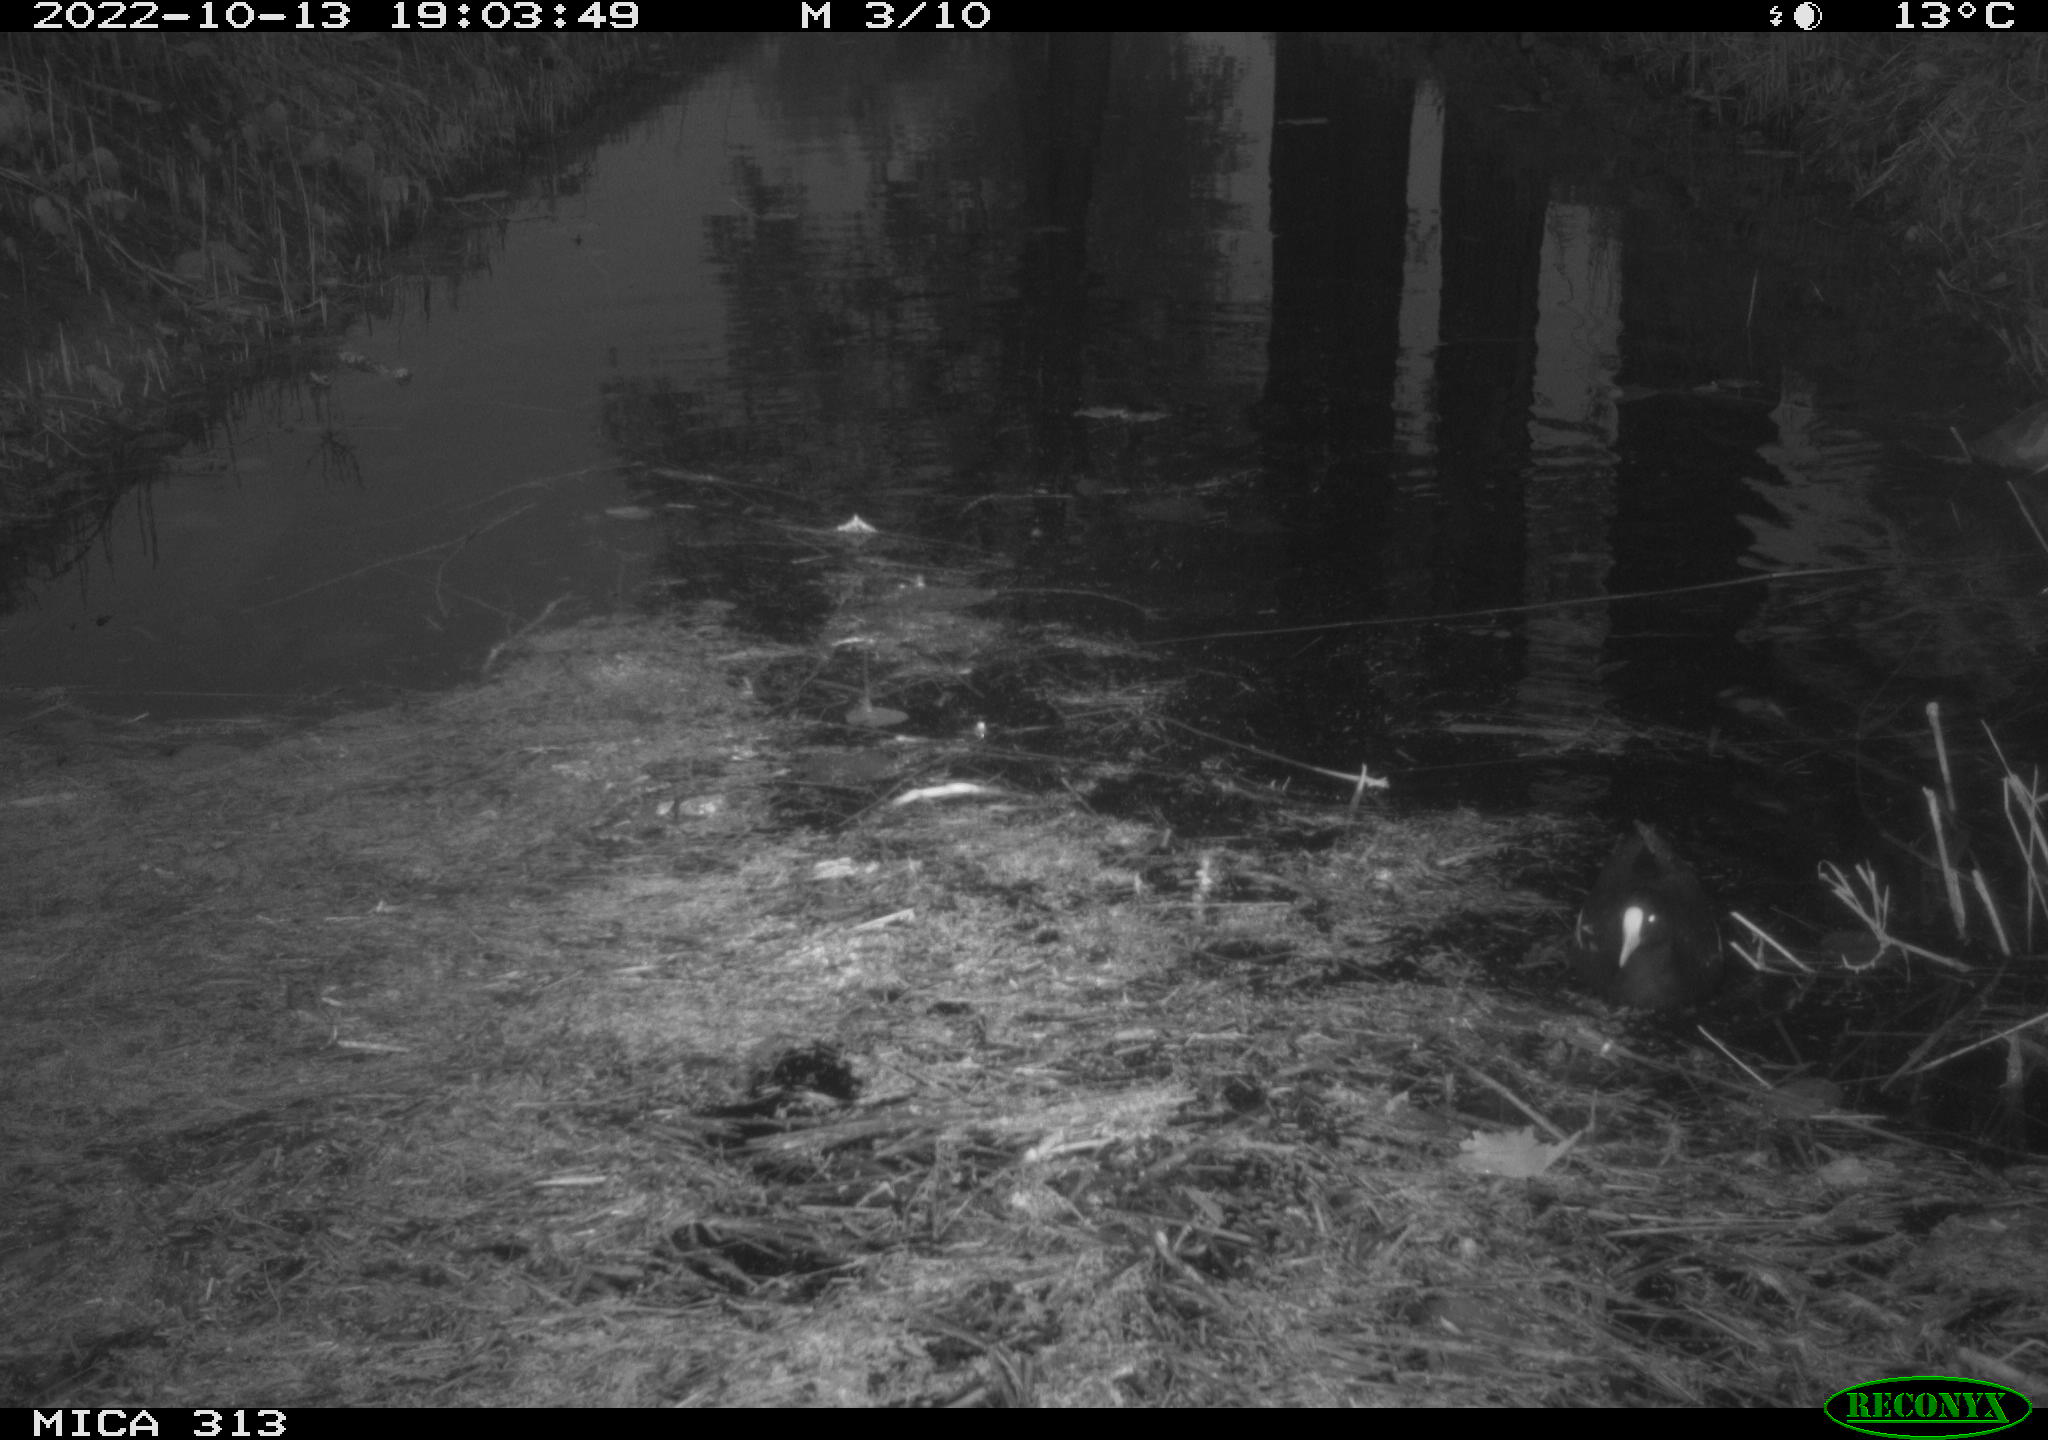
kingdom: Animalia
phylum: Chordata
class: Aves
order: Gruiformes
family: Rallidae
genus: Gallinula
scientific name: Gallinula chloropus
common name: Common moorhen
